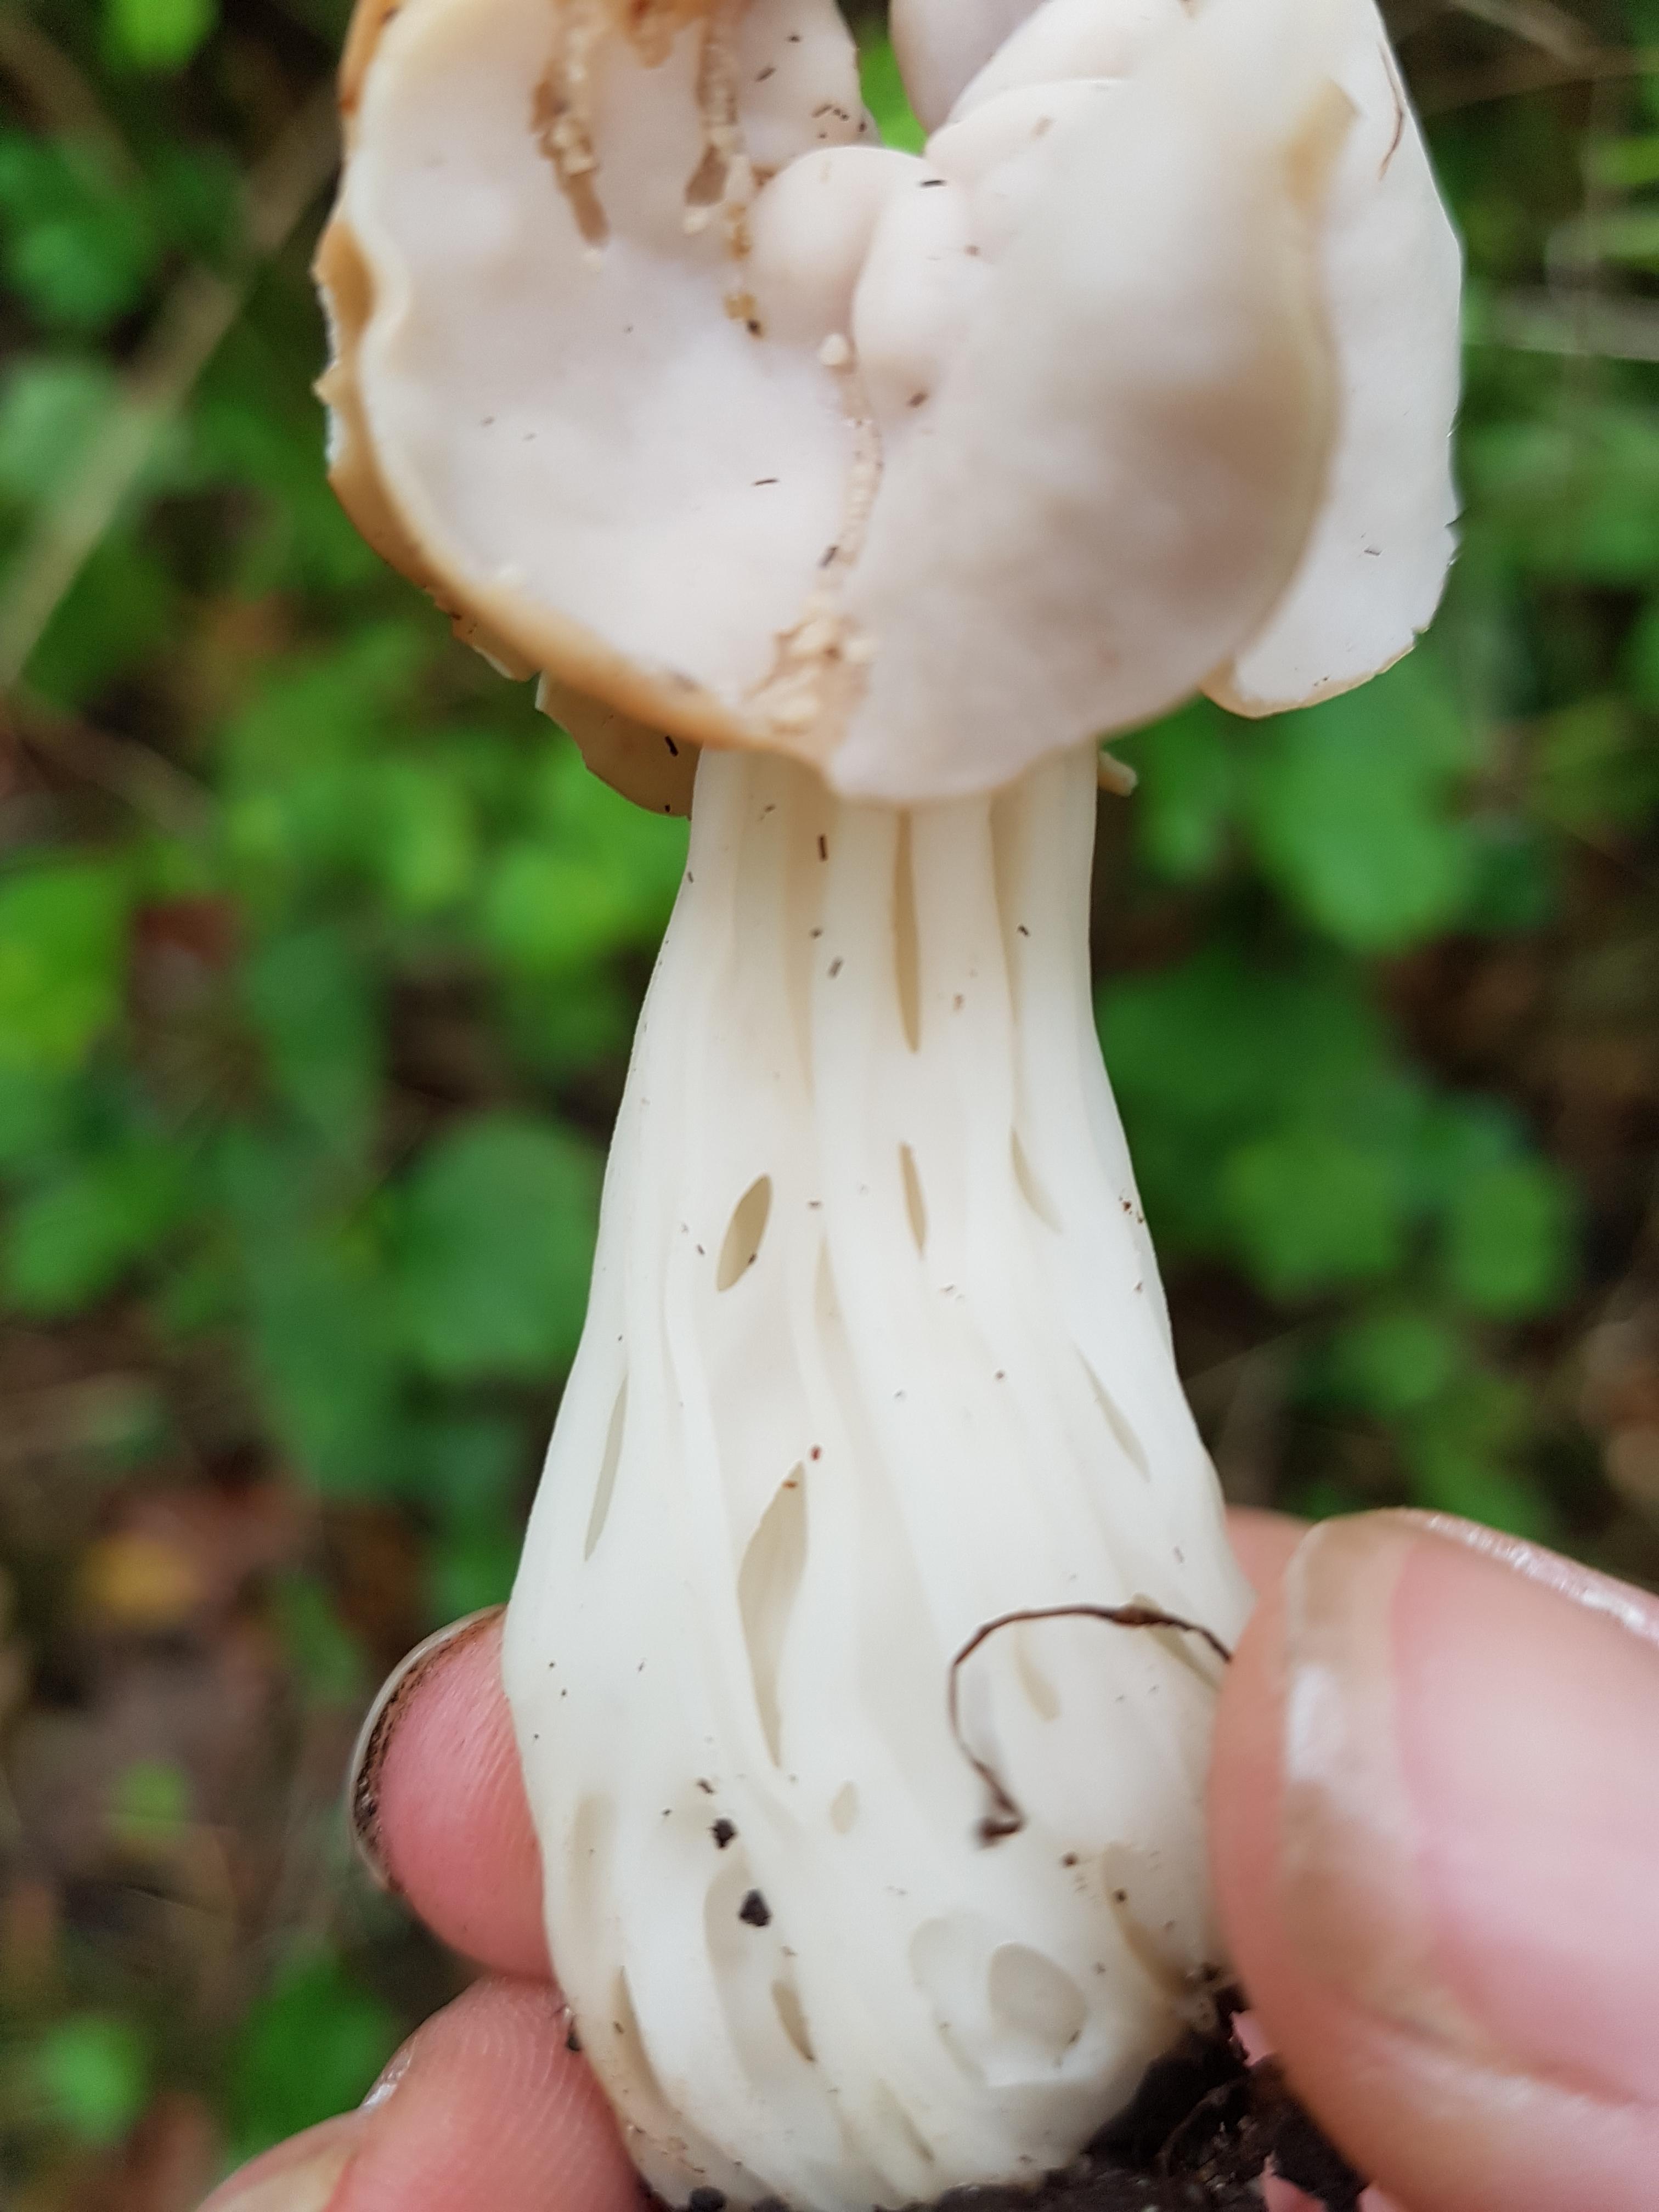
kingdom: Fungi
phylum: Ascomycota
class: Pezizomycetes
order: Pezizales
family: Helvellaceae
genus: Helvella
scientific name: Helvella crispa
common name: kruset foldhat
